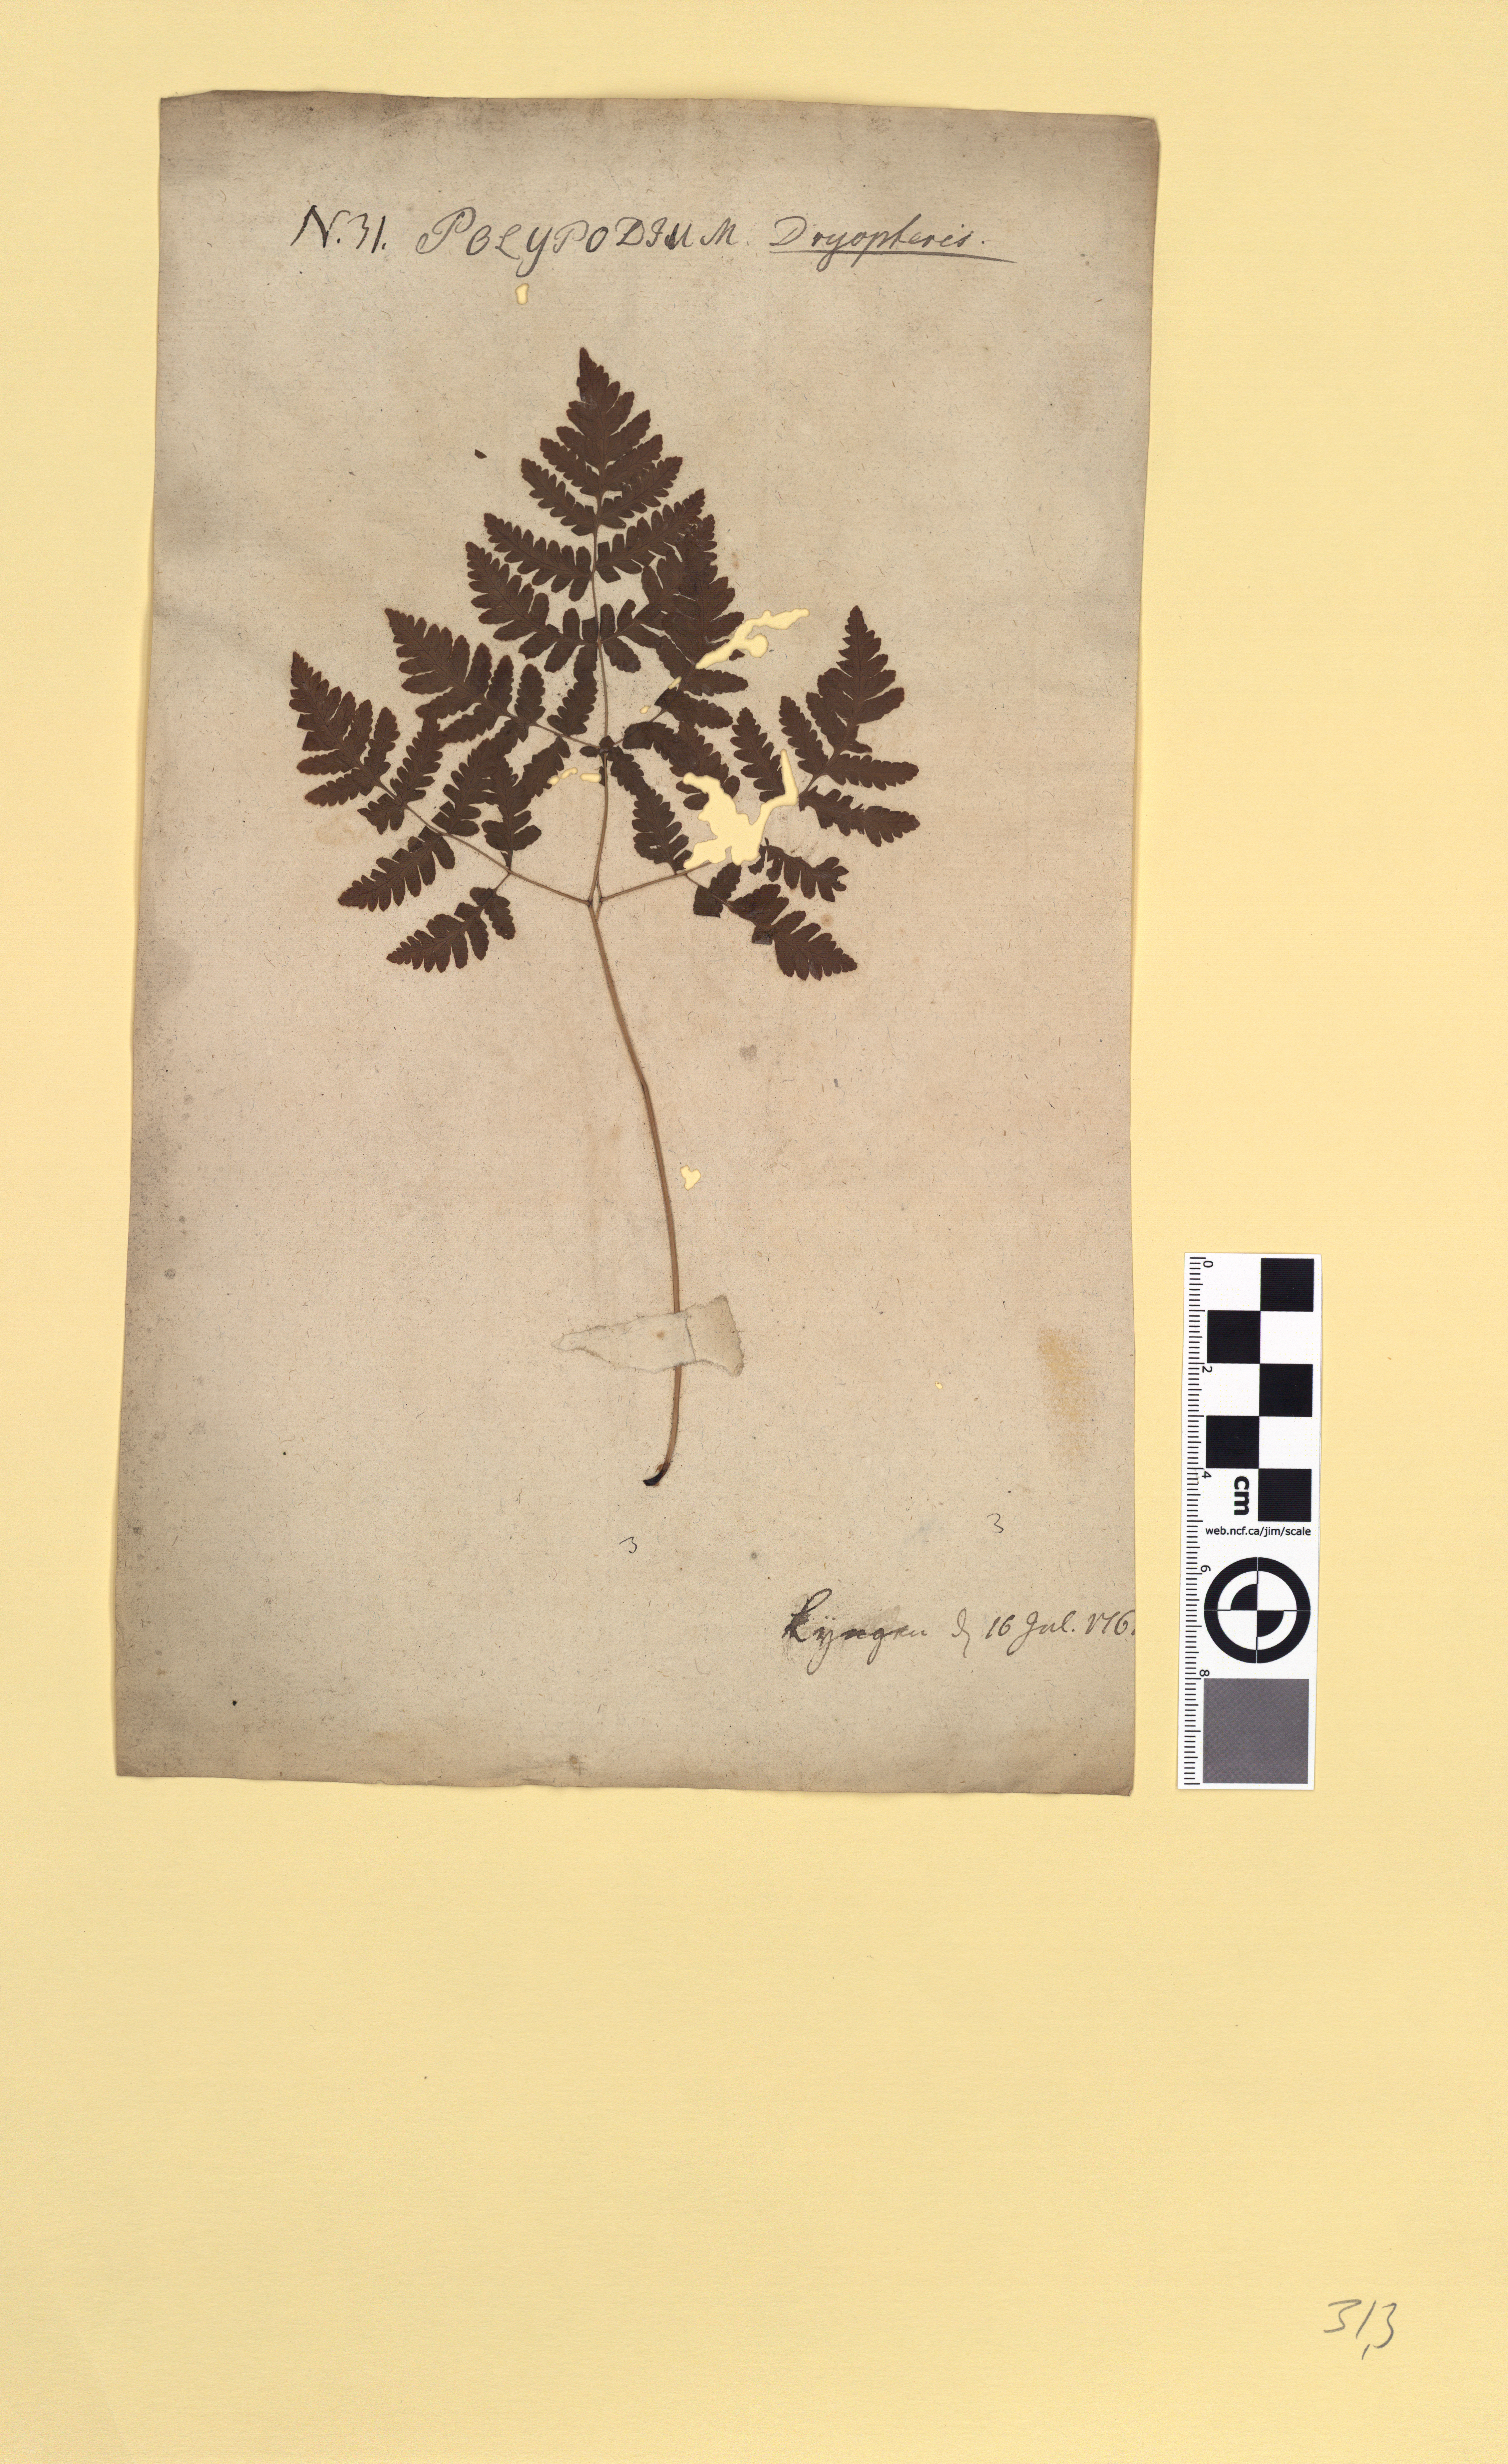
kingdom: Plantae
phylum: Tracheophyta
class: Polypodiopsida
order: Polypodiales
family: Cystopteridaceae
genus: Gymnocarpium
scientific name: Gymnocarpium dryopteris
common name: Oak fern
